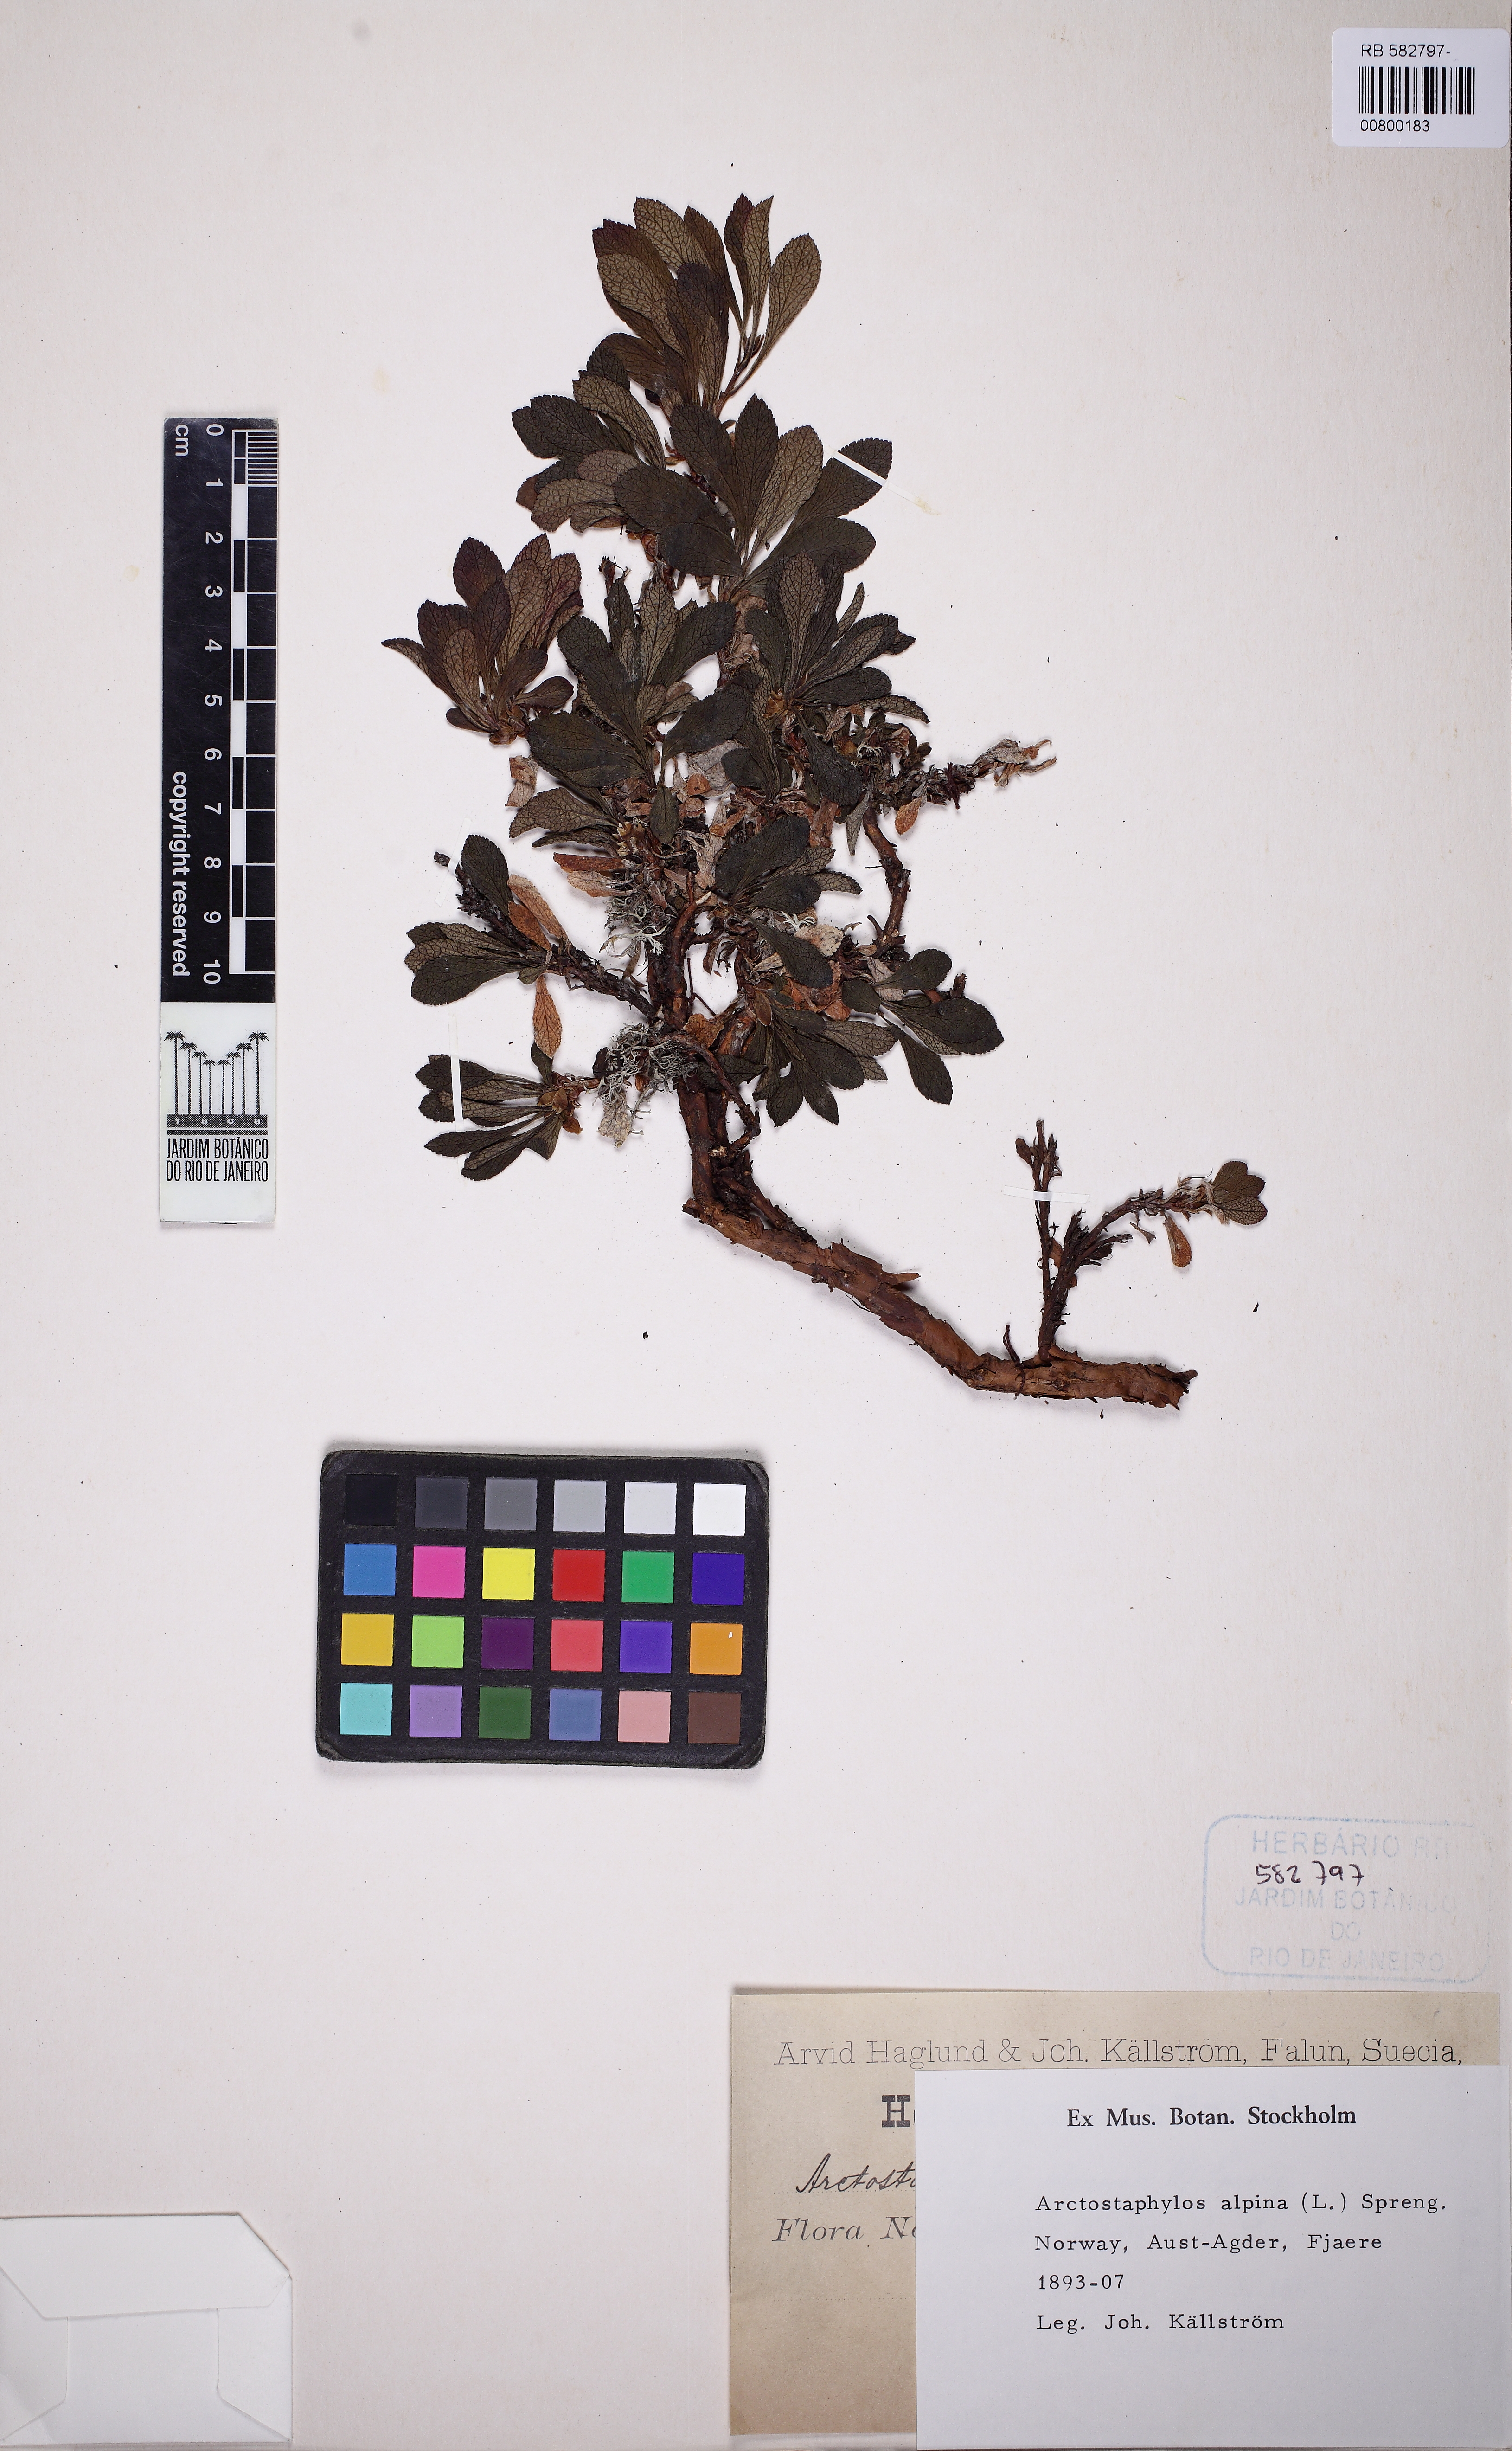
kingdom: Plantae
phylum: Tracheophyta
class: Magnoliopsida
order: Ericales
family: Ericaceae
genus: Arctostaphylos
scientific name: Arctostaphylos alpinus
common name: Alpine bearberry
